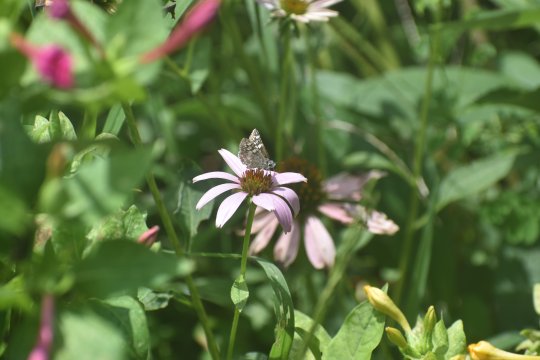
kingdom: Animalia
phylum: Arthropoda
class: Insecta
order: Lepidoptera
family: Hesperiidae
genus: Pyrgus
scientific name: Pyrgus
